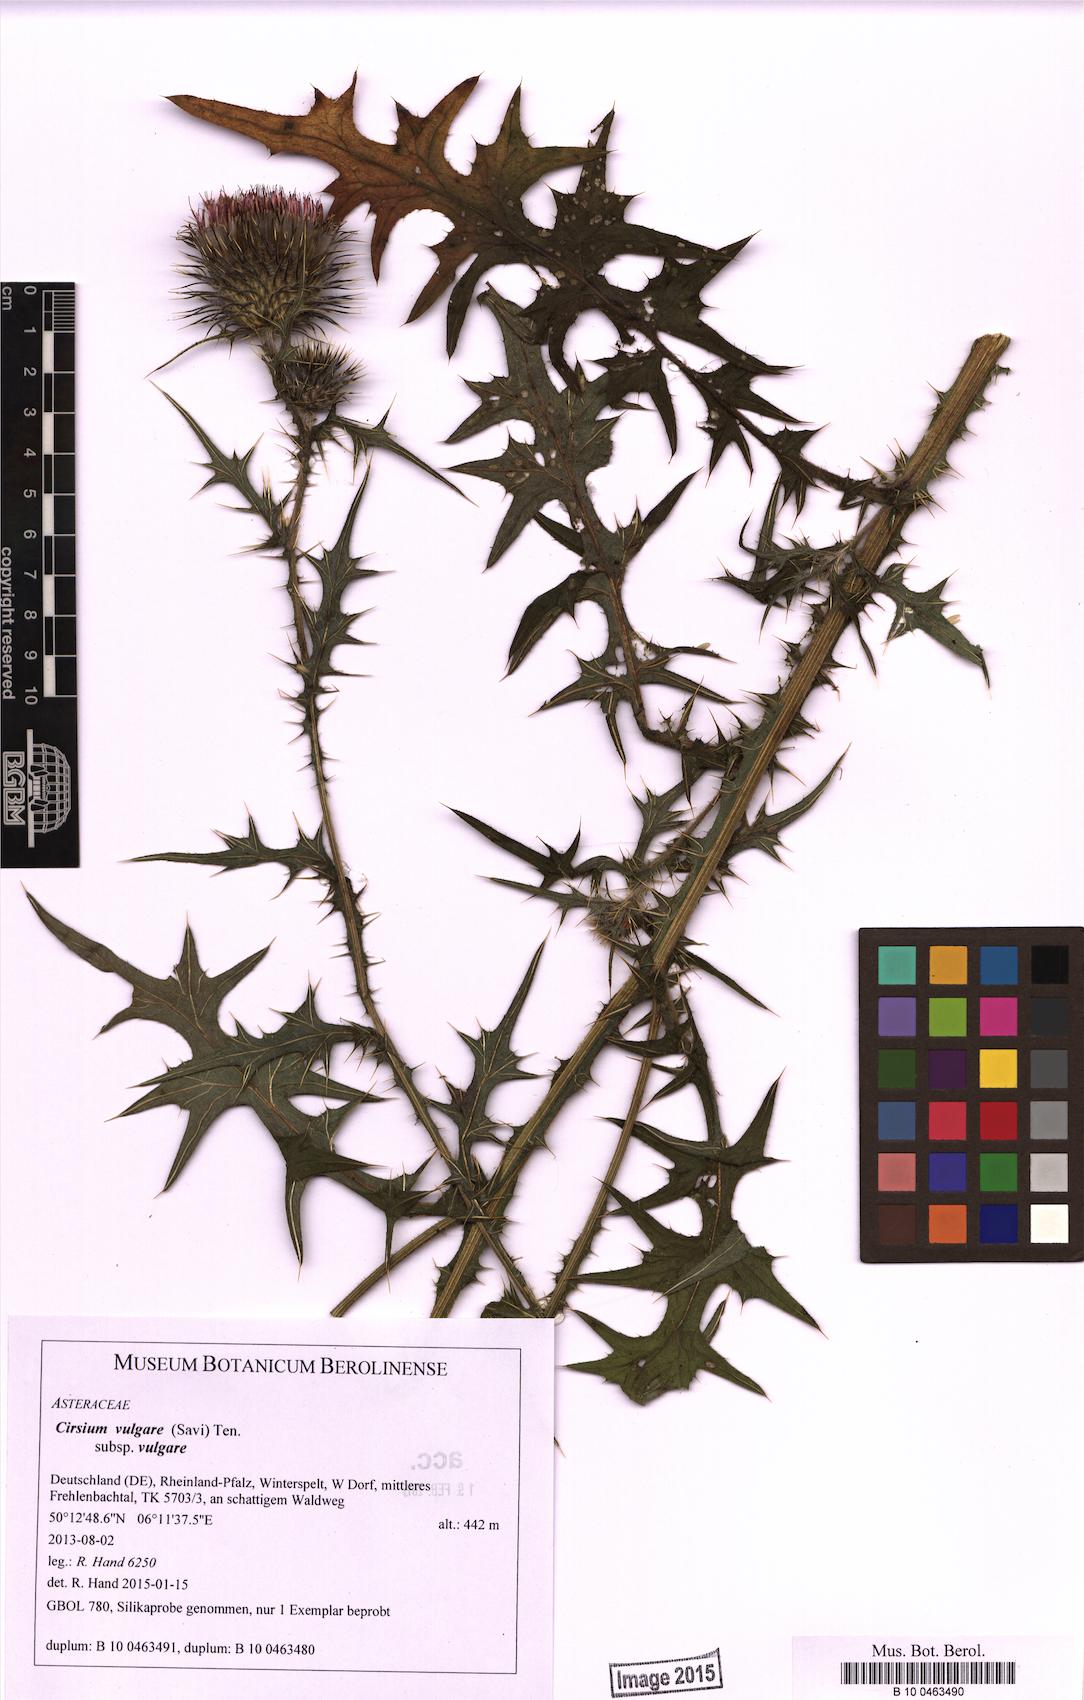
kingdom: Plantae
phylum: Tracheophyta
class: Magnoliopsida
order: Asterales
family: Asteraceae
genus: Cirsium
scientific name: Cirsium vulgare
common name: Bull thistle
